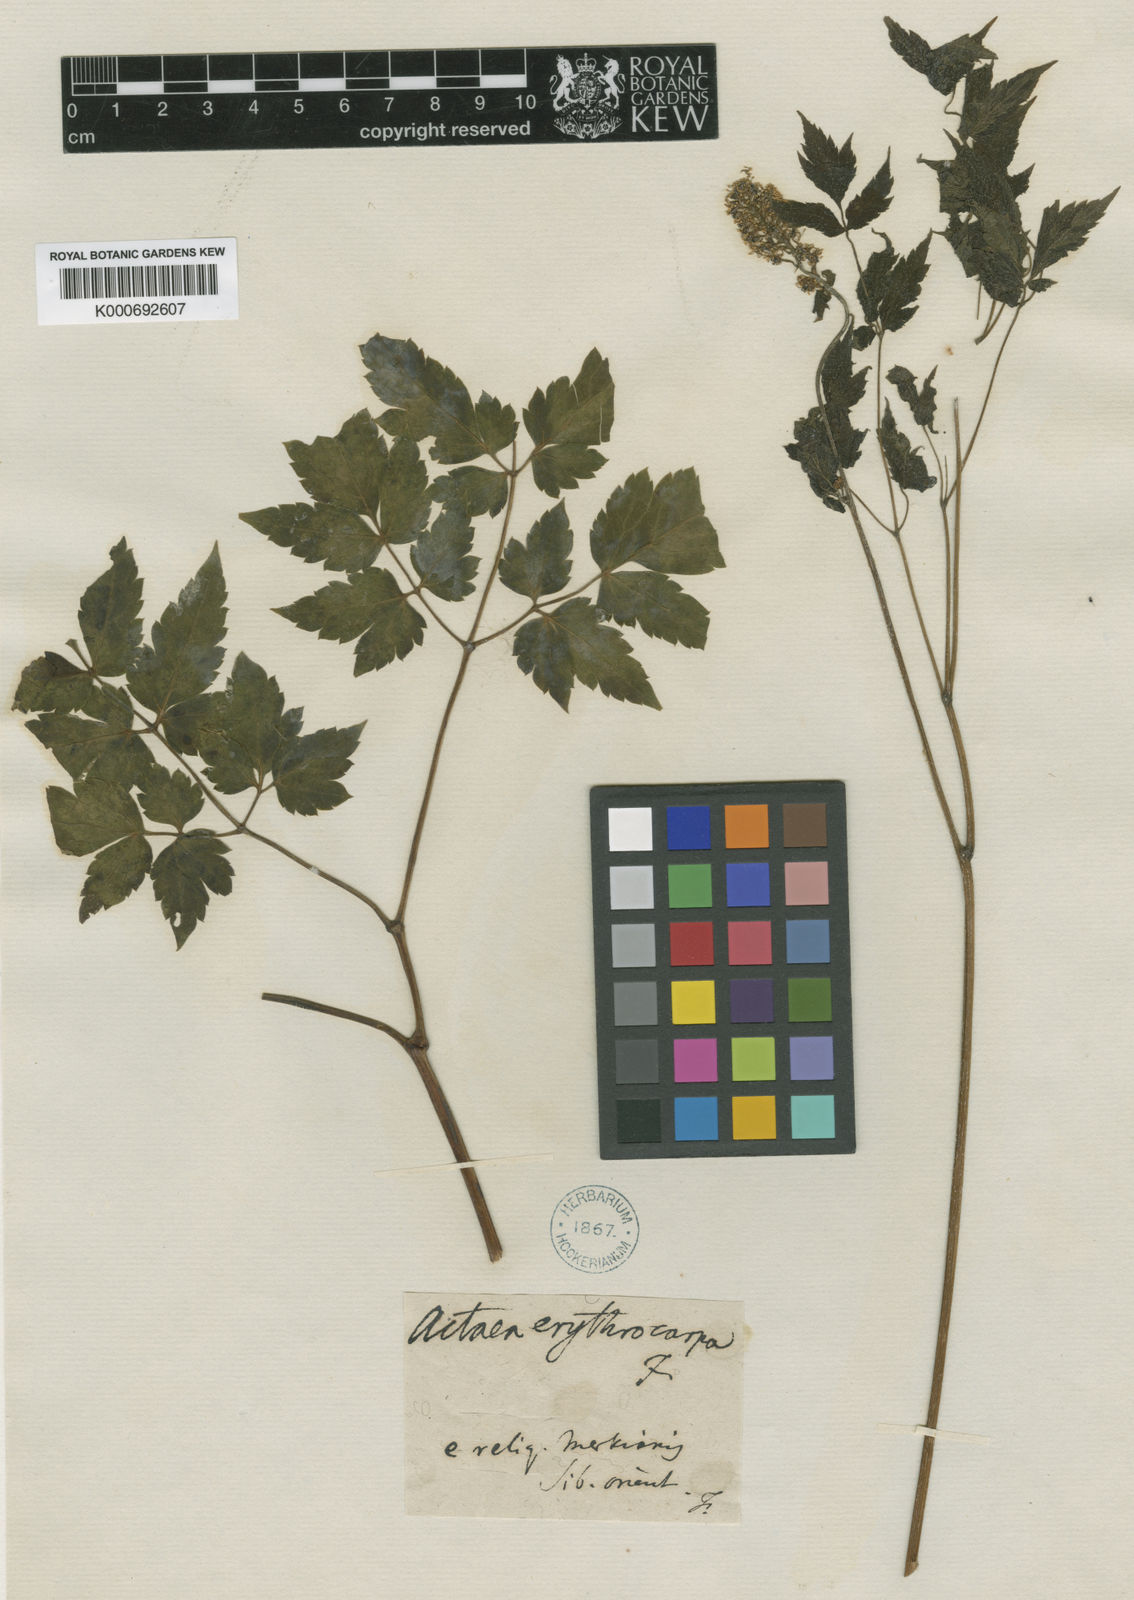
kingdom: Plantae
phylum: Tracheophyta
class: Magnoliopsida
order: Ranunculales
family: Ranunculaceae
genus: Actaea
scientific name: Actaea rubra
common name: Red baneberry
